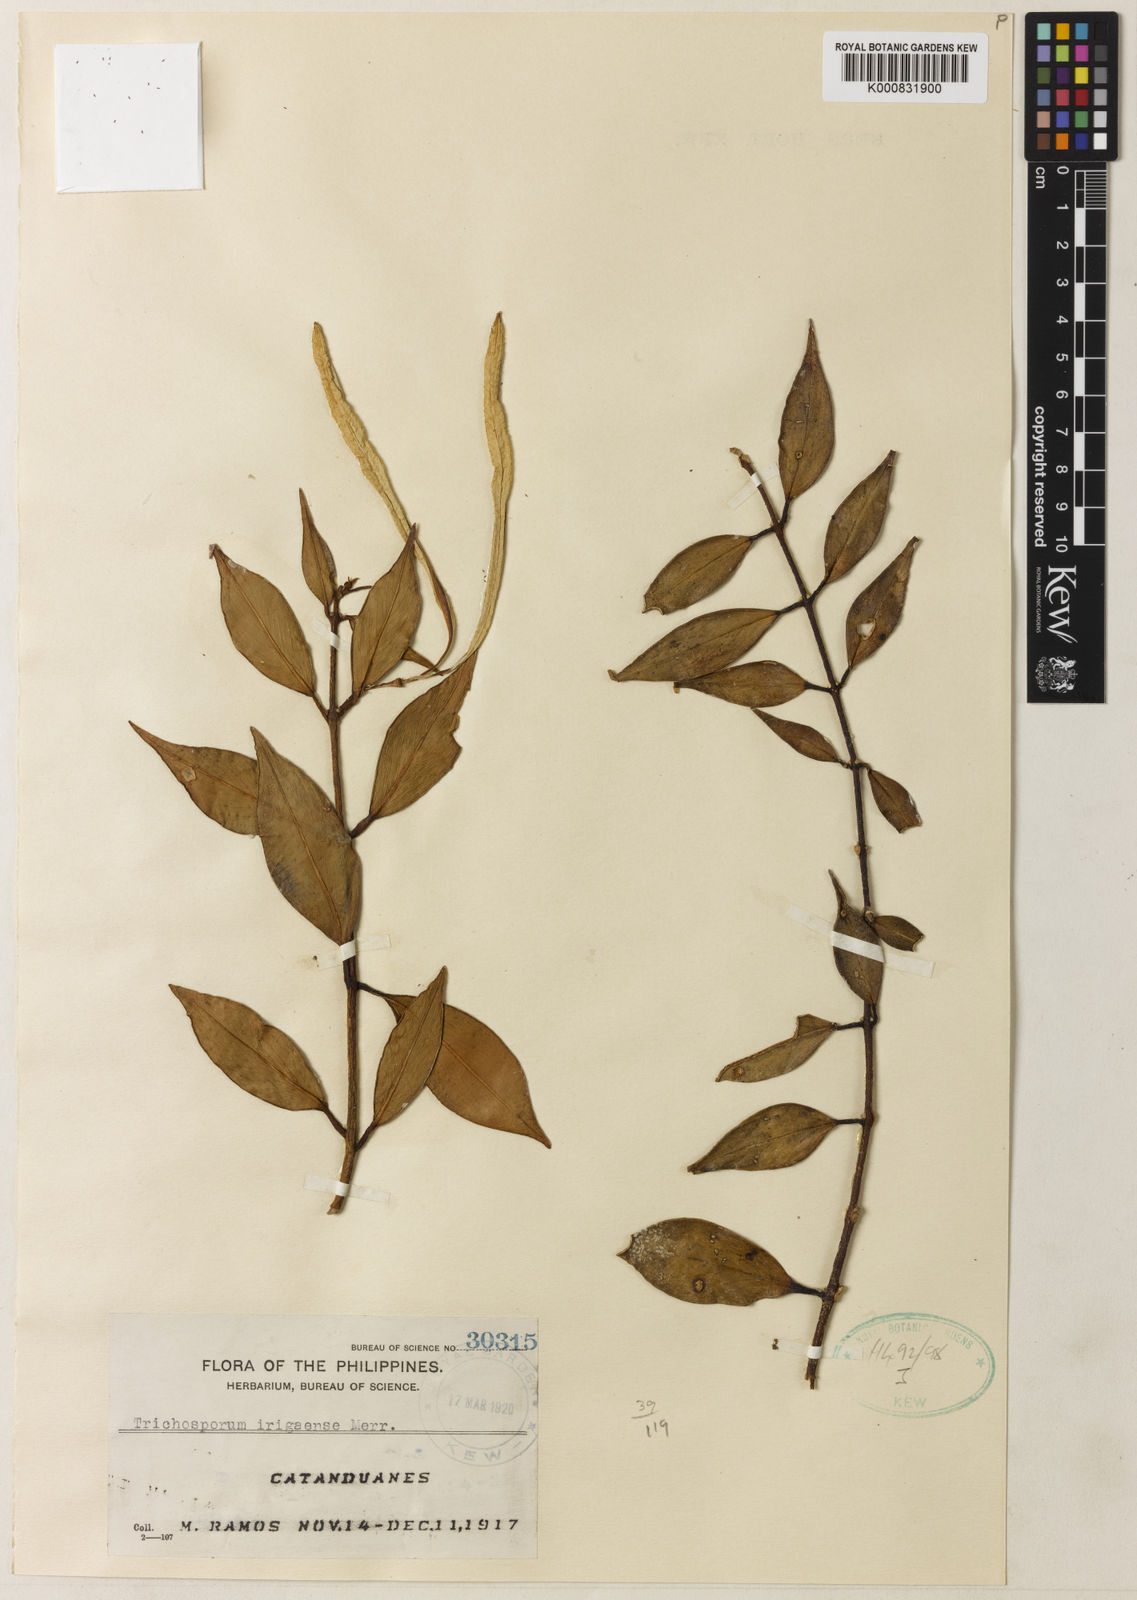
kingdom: Plantae
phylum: Tracheophyta
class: Magnoliopsida
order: Lamiales
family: Gesneriaceae
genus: Aeschynanthus
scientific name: Aeschynanthus irigaensis
